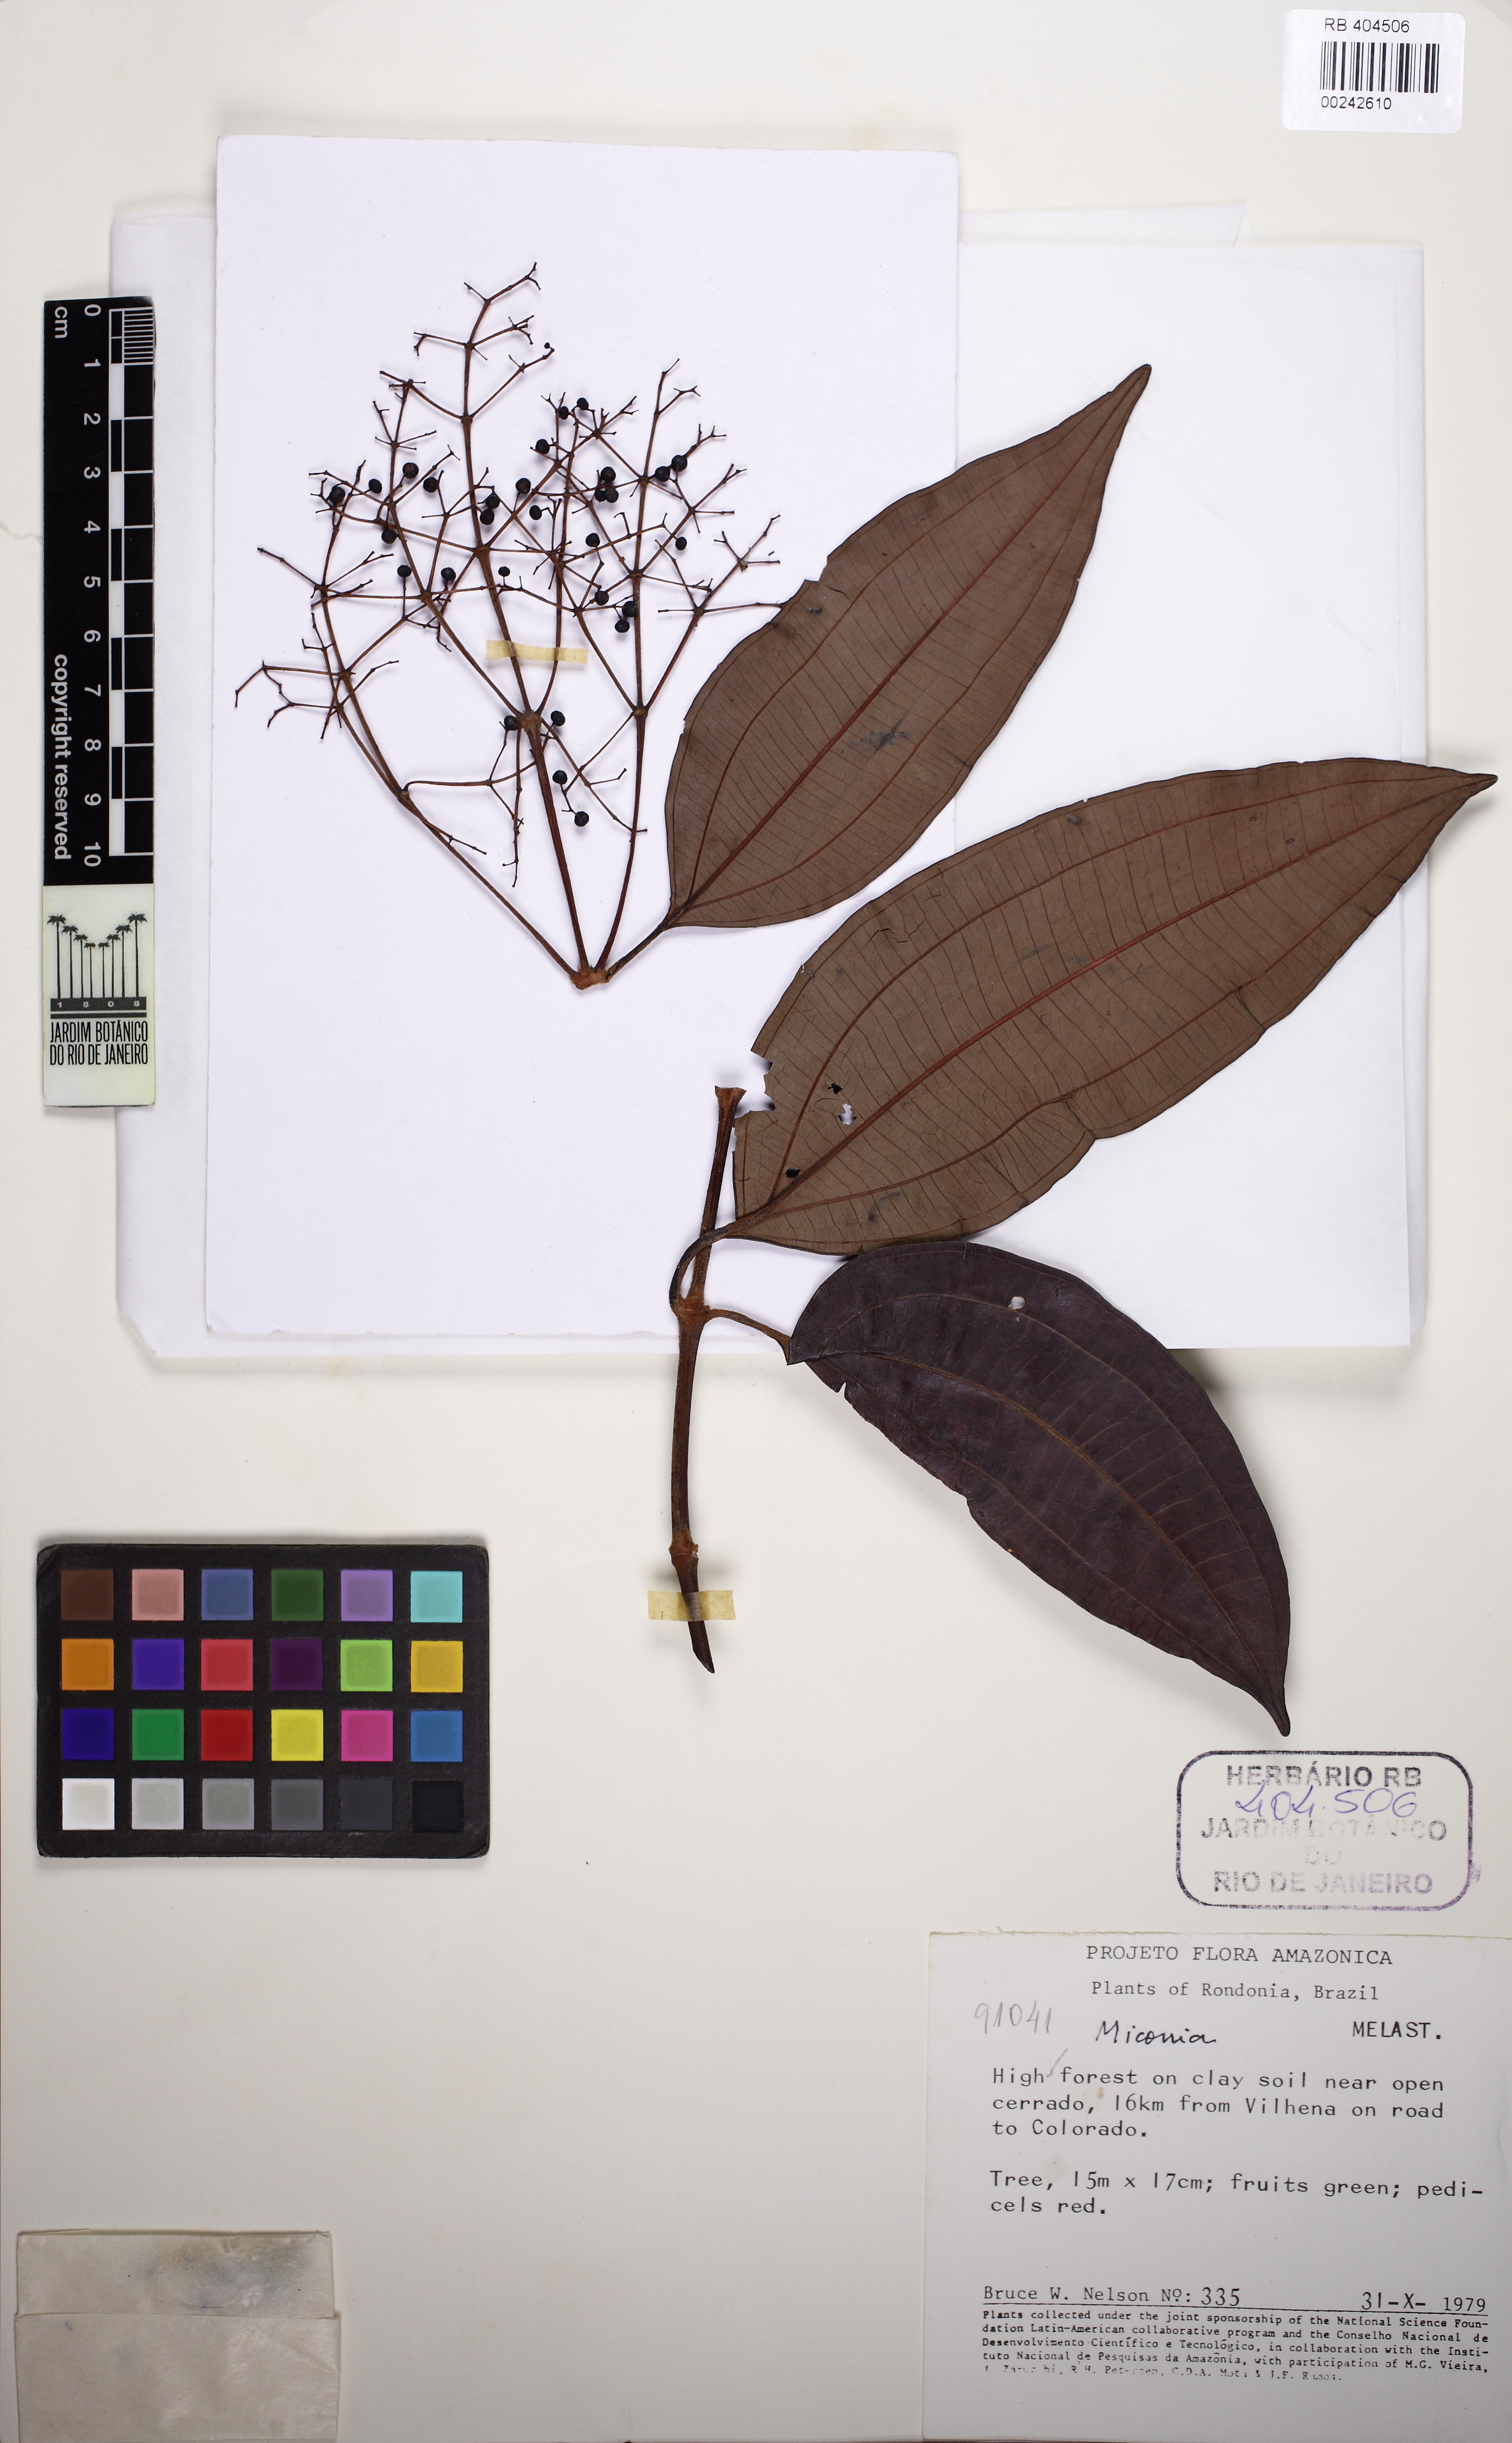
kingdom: Plantae
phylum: Tracheophyta
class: Magnoliopsida
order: Myrtales
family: Melastomataceae
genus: Miconia
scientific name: Miconia
